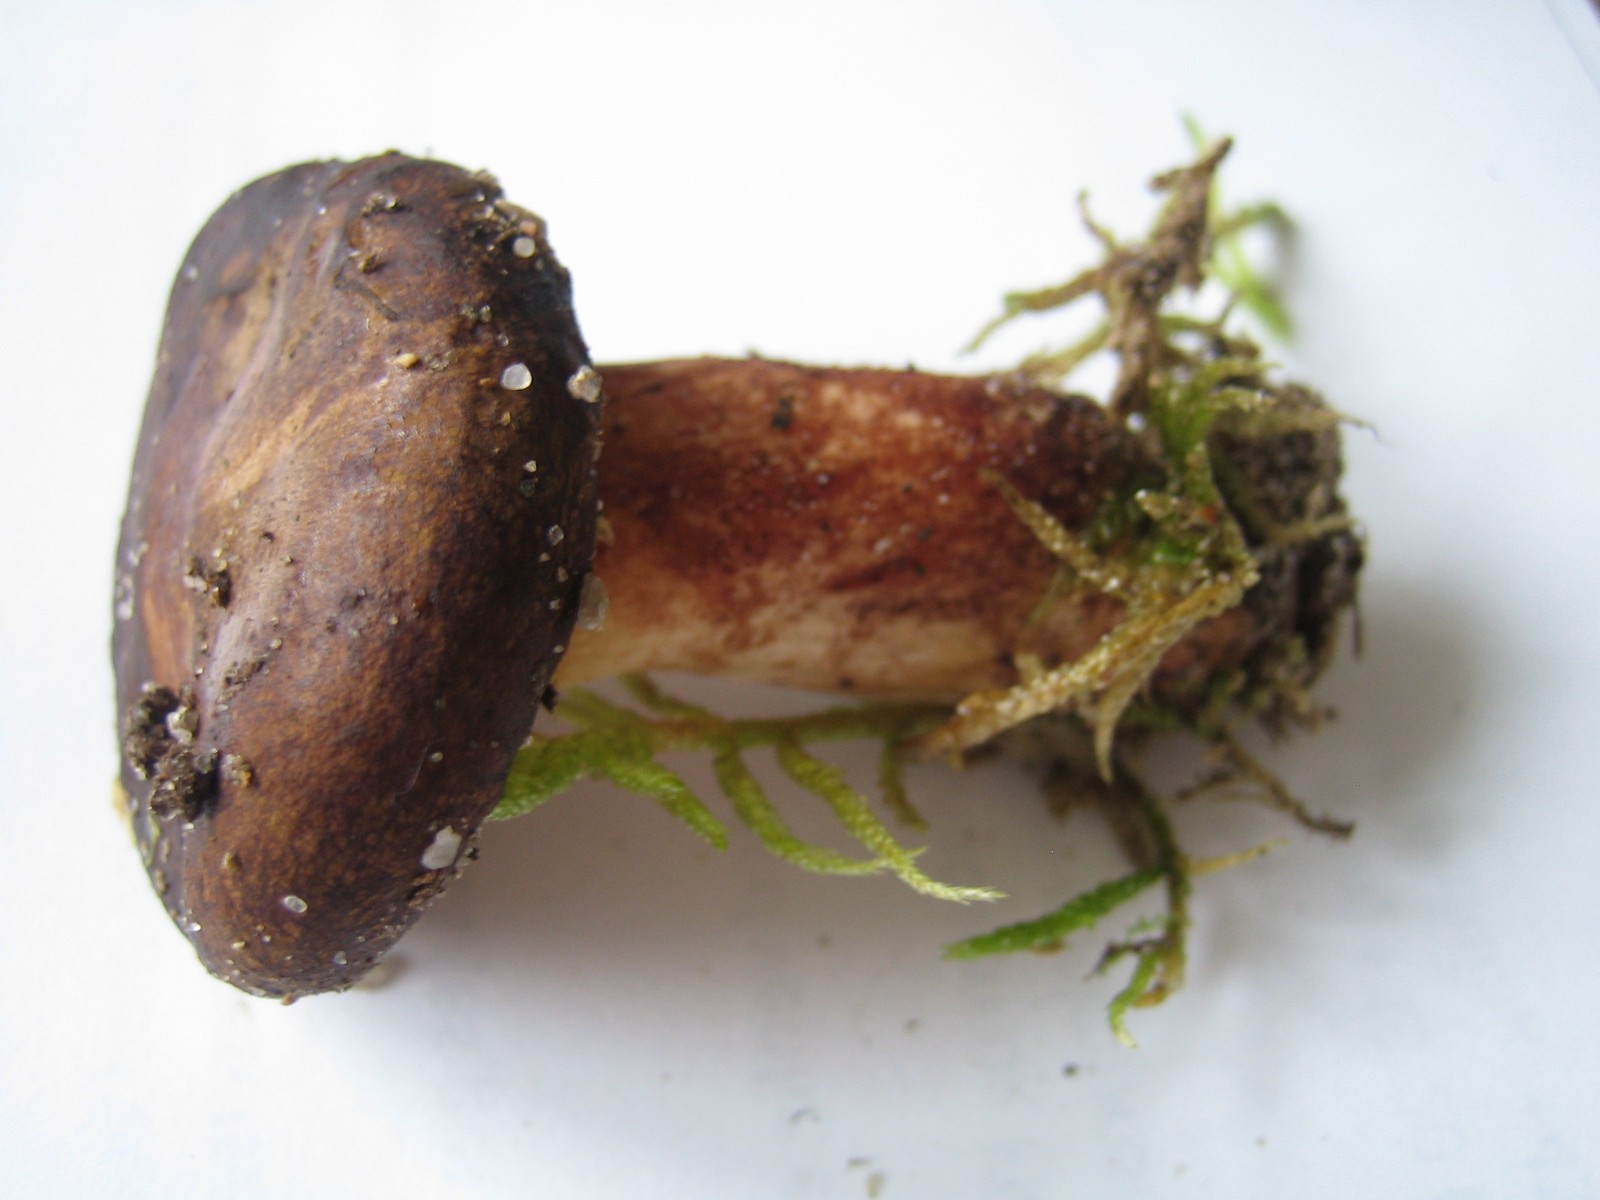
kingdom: Fungi
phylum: Basidiomycota
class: Agaricomycetes
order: Boletales
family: Paxillaceae
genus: Paxillus
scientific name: Paxillus
